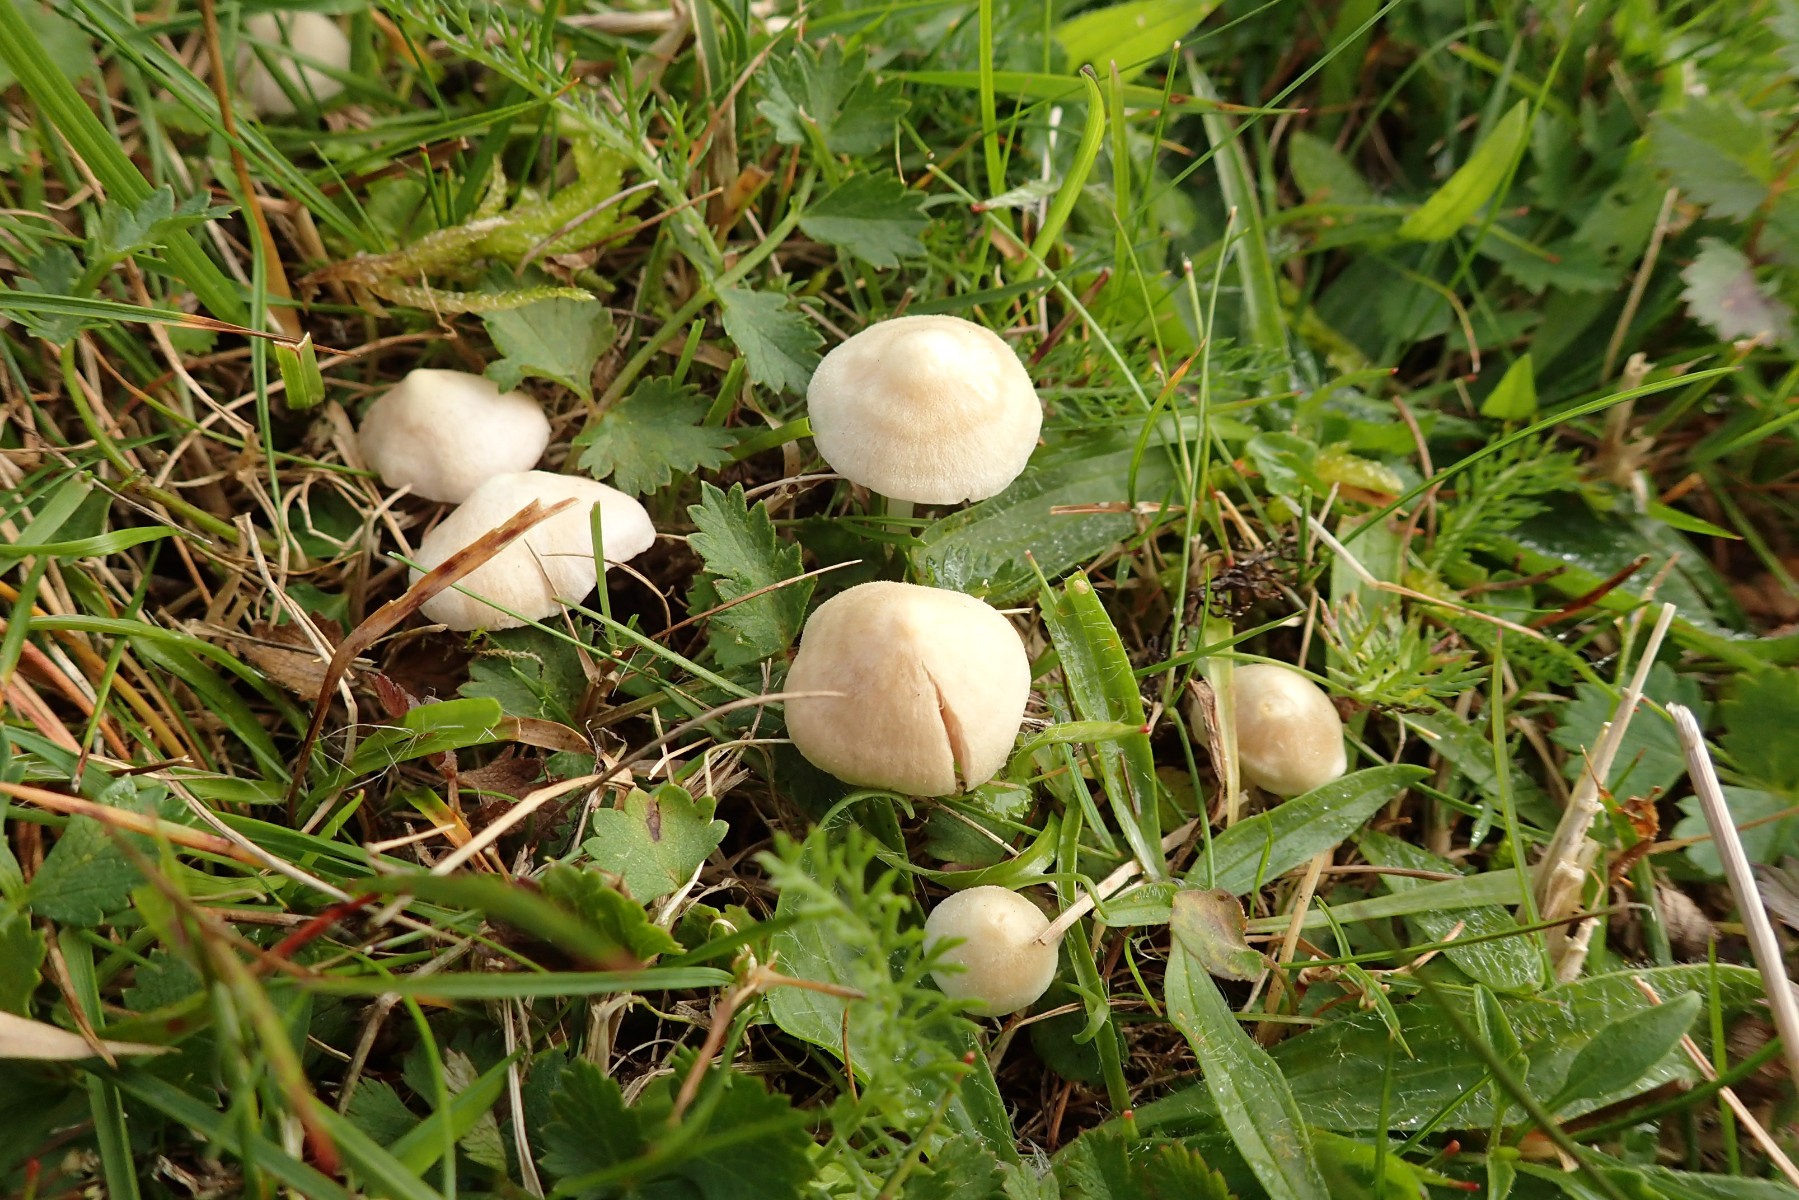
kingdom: Fungi
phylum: Basidiomycota
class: Agaricomycetes
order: Agaricales
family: Entolomataceae
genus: Entoloma
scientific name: Entoloma sericellum
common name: silkehvid rødblad
